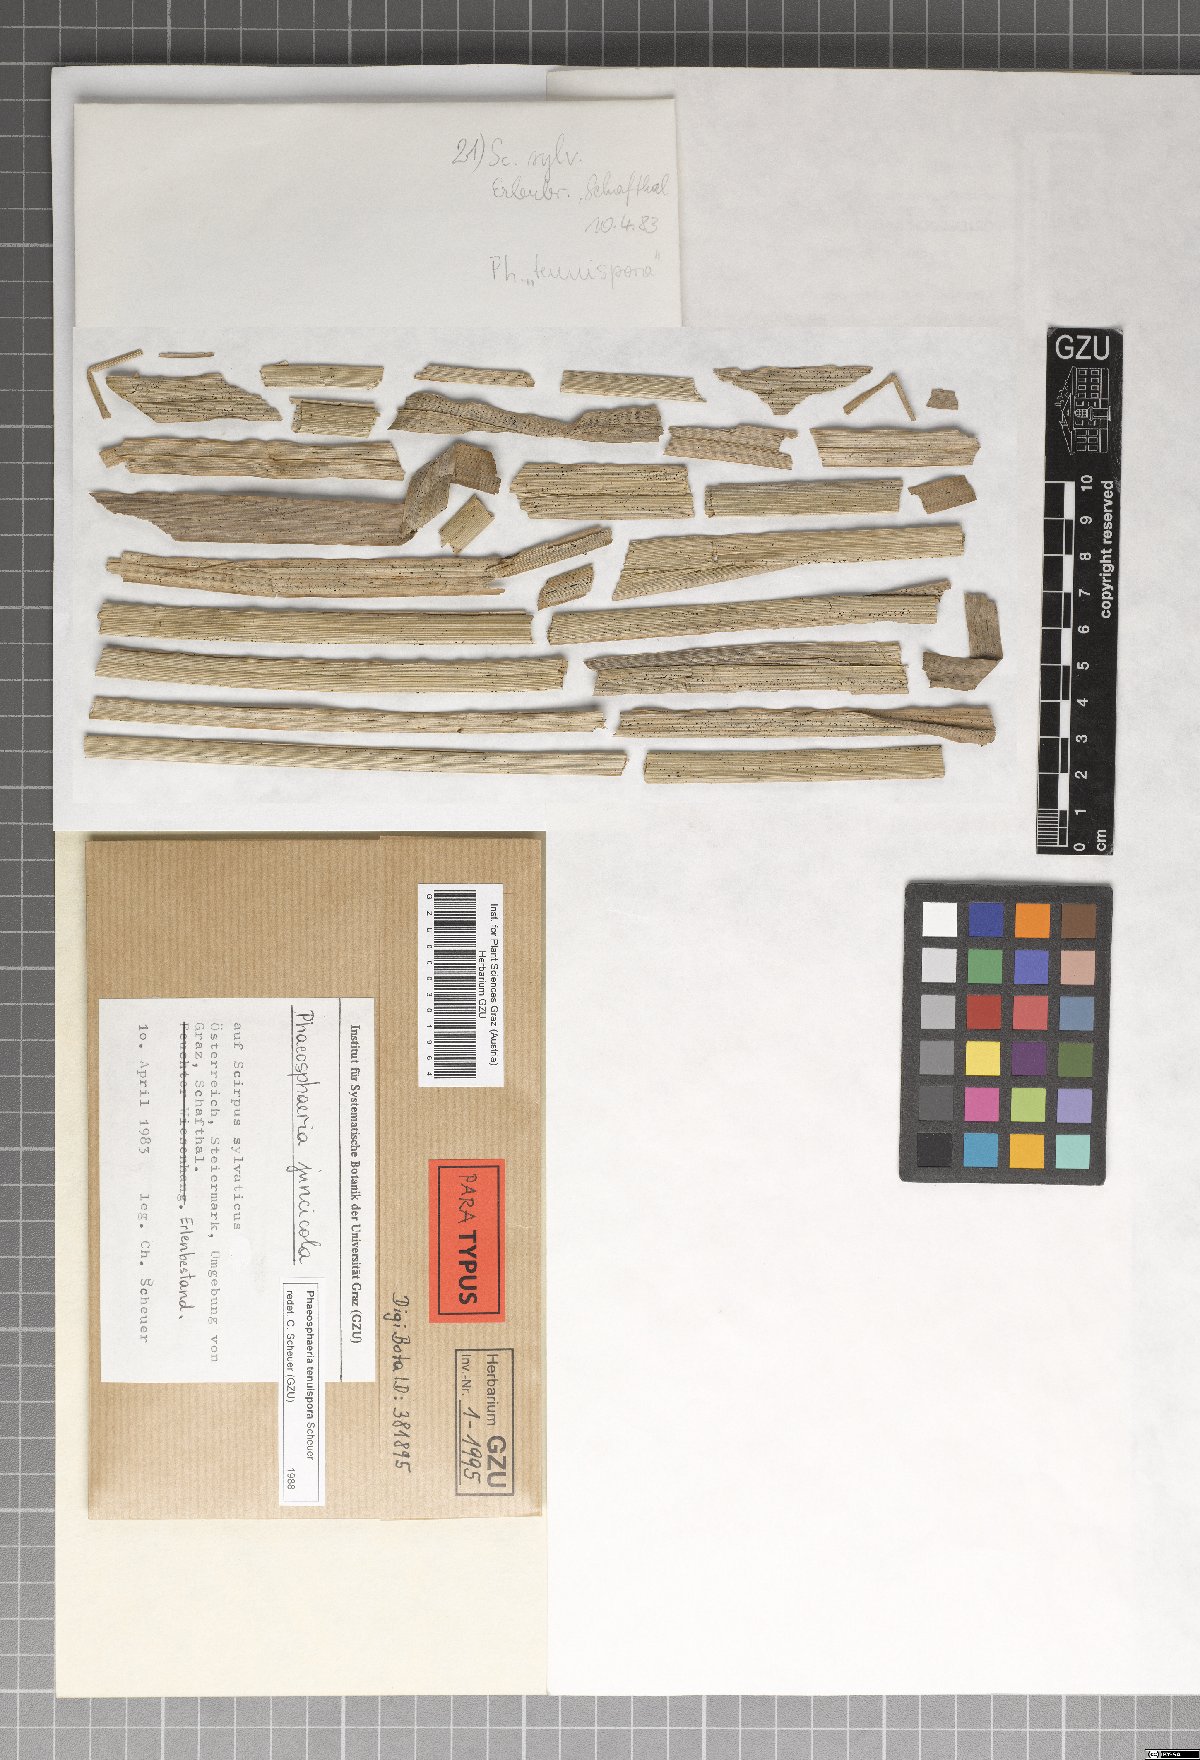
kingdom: Fungi
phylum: Ascomycota
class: Dothideomycetes
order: Pleosporales
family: Phaeosphaeriaceae
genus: Phaeosphaeria
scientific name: Phaeosphaeria tenuispora
